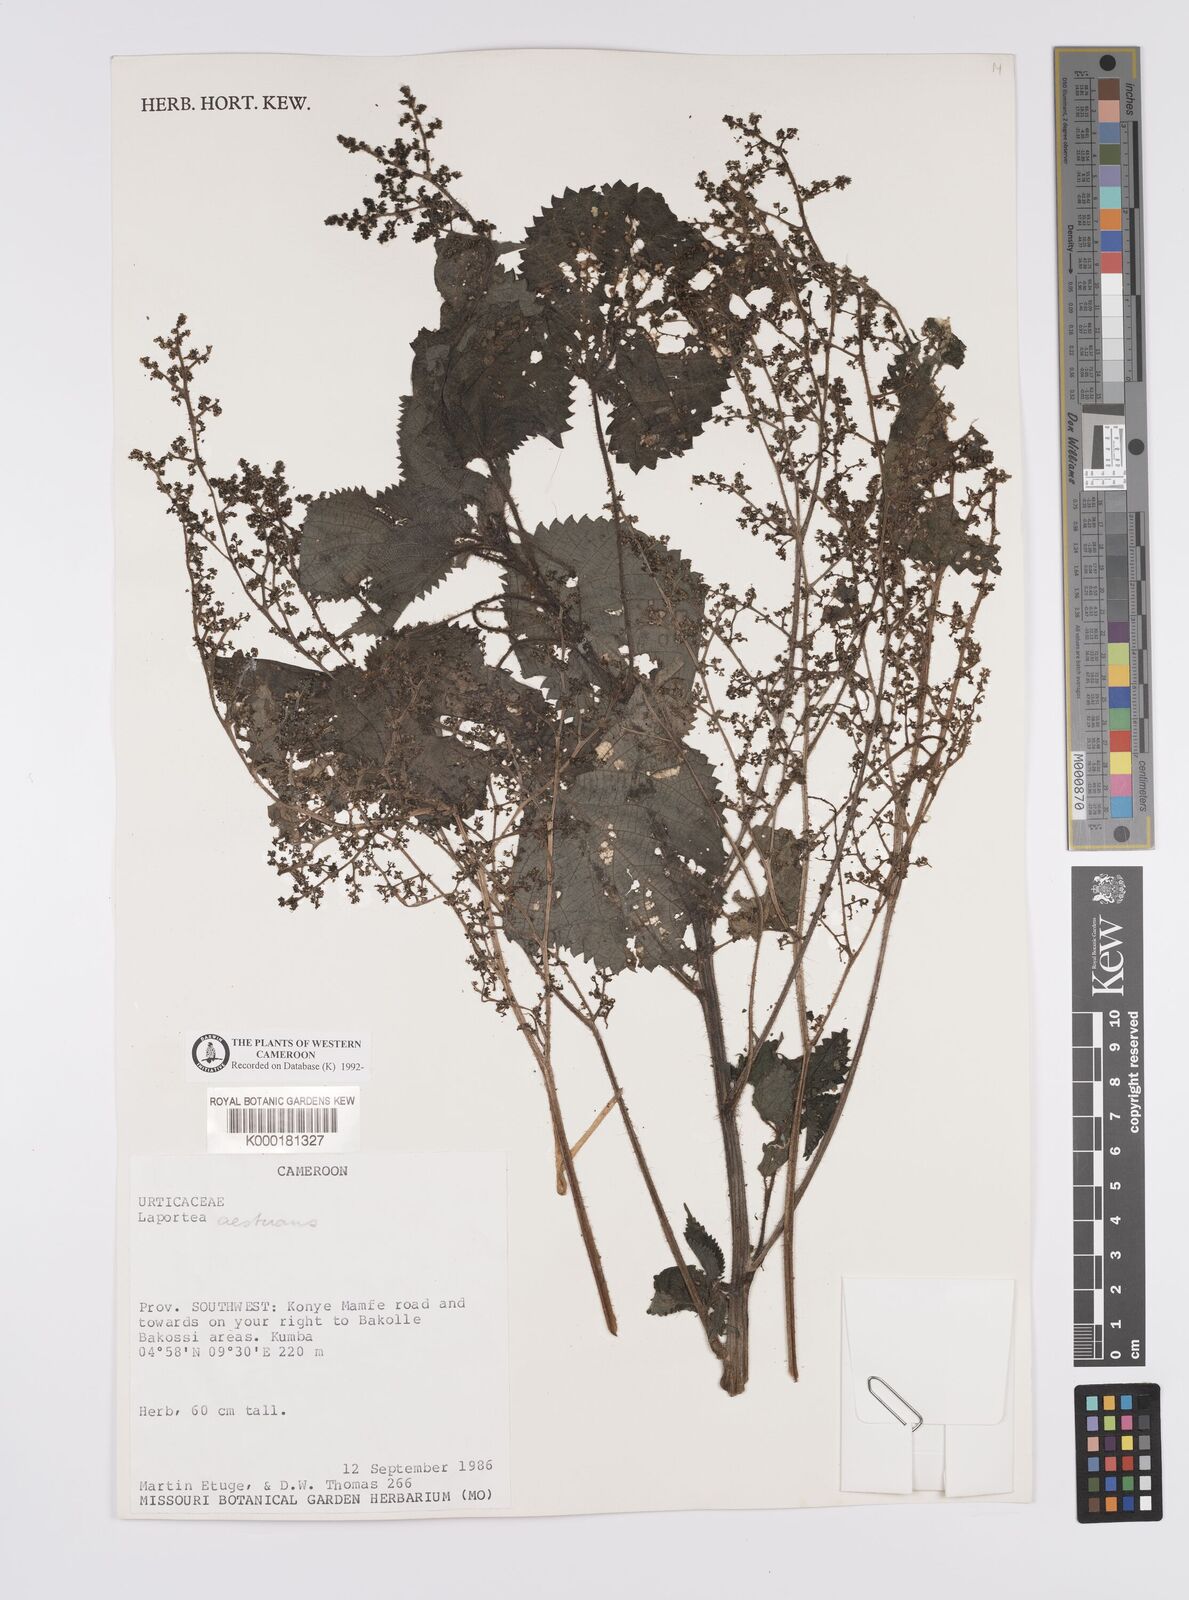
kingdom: Plantae
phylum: Tracheophyta
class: Magnoliopsida
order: Rosales
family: Urticaceae
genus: Laportea
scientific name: Laportea aestuans
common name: West indian woodnettle
